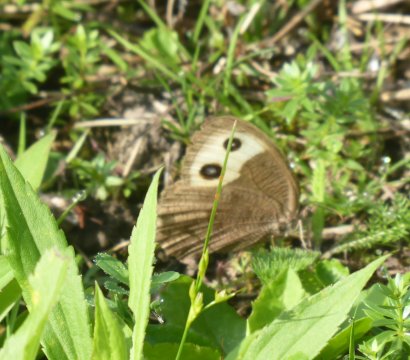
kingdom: Animalia
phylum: Arthropoda
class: Insecta
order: Lepidoptera
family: Nymphalidae
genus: Cercyonis
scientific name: Cercyonis pegala
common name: Common Wood-Nymph
